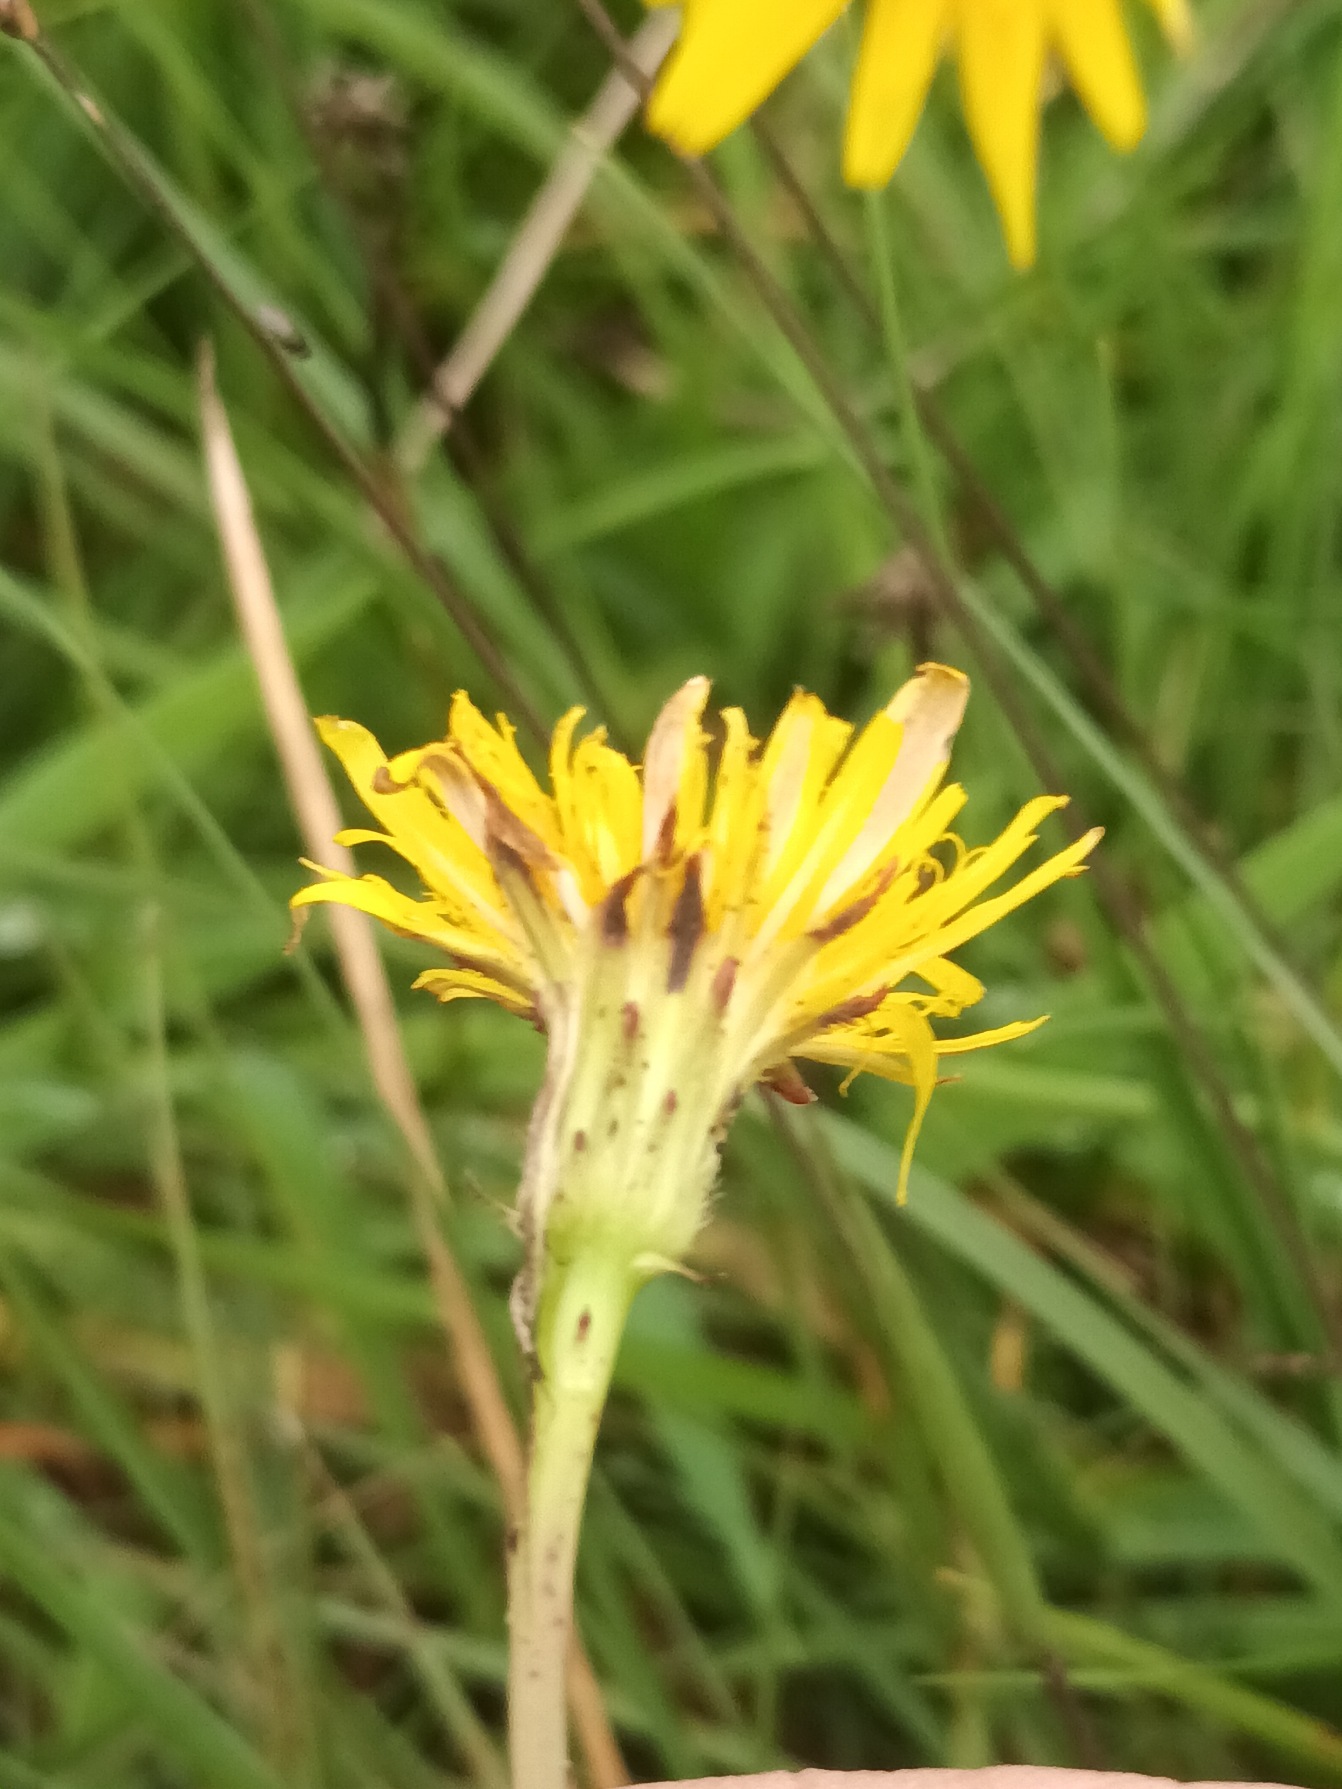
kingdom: Plantae
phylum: Tracheophyta
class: Magnoliopsida
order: Asterales
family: Asteraceae
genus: Hypochaeris
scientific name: Hypochaeris radicata
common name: Almindelig kongepen
